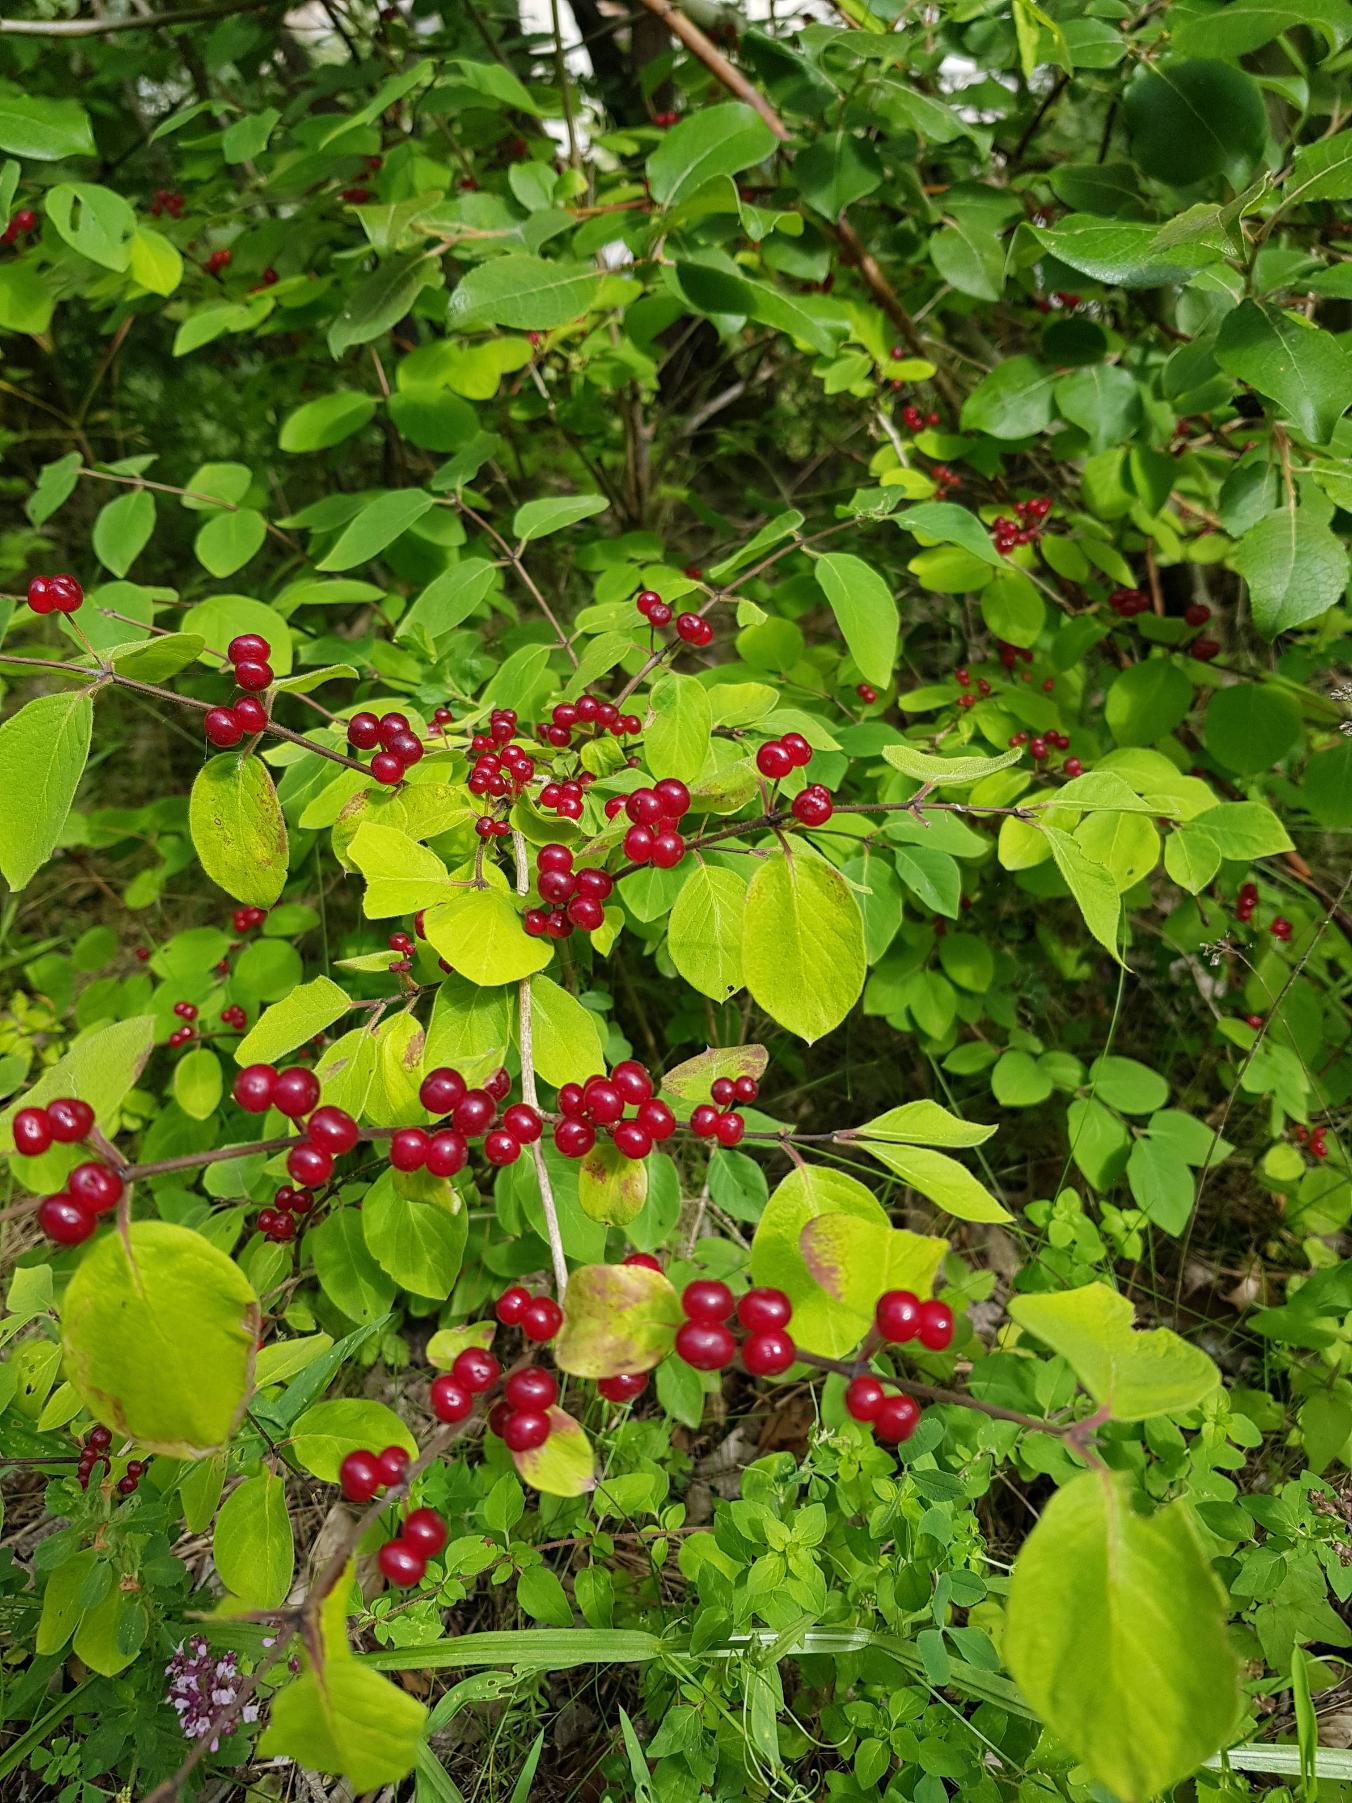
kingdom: Plantae
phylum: Tracheophyta
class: Magnoliopsida
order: Dipsacales
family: Caprifoliaceae
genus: Lonicera
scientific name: Lonicera xylosteum
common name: Dunet gedeblad
